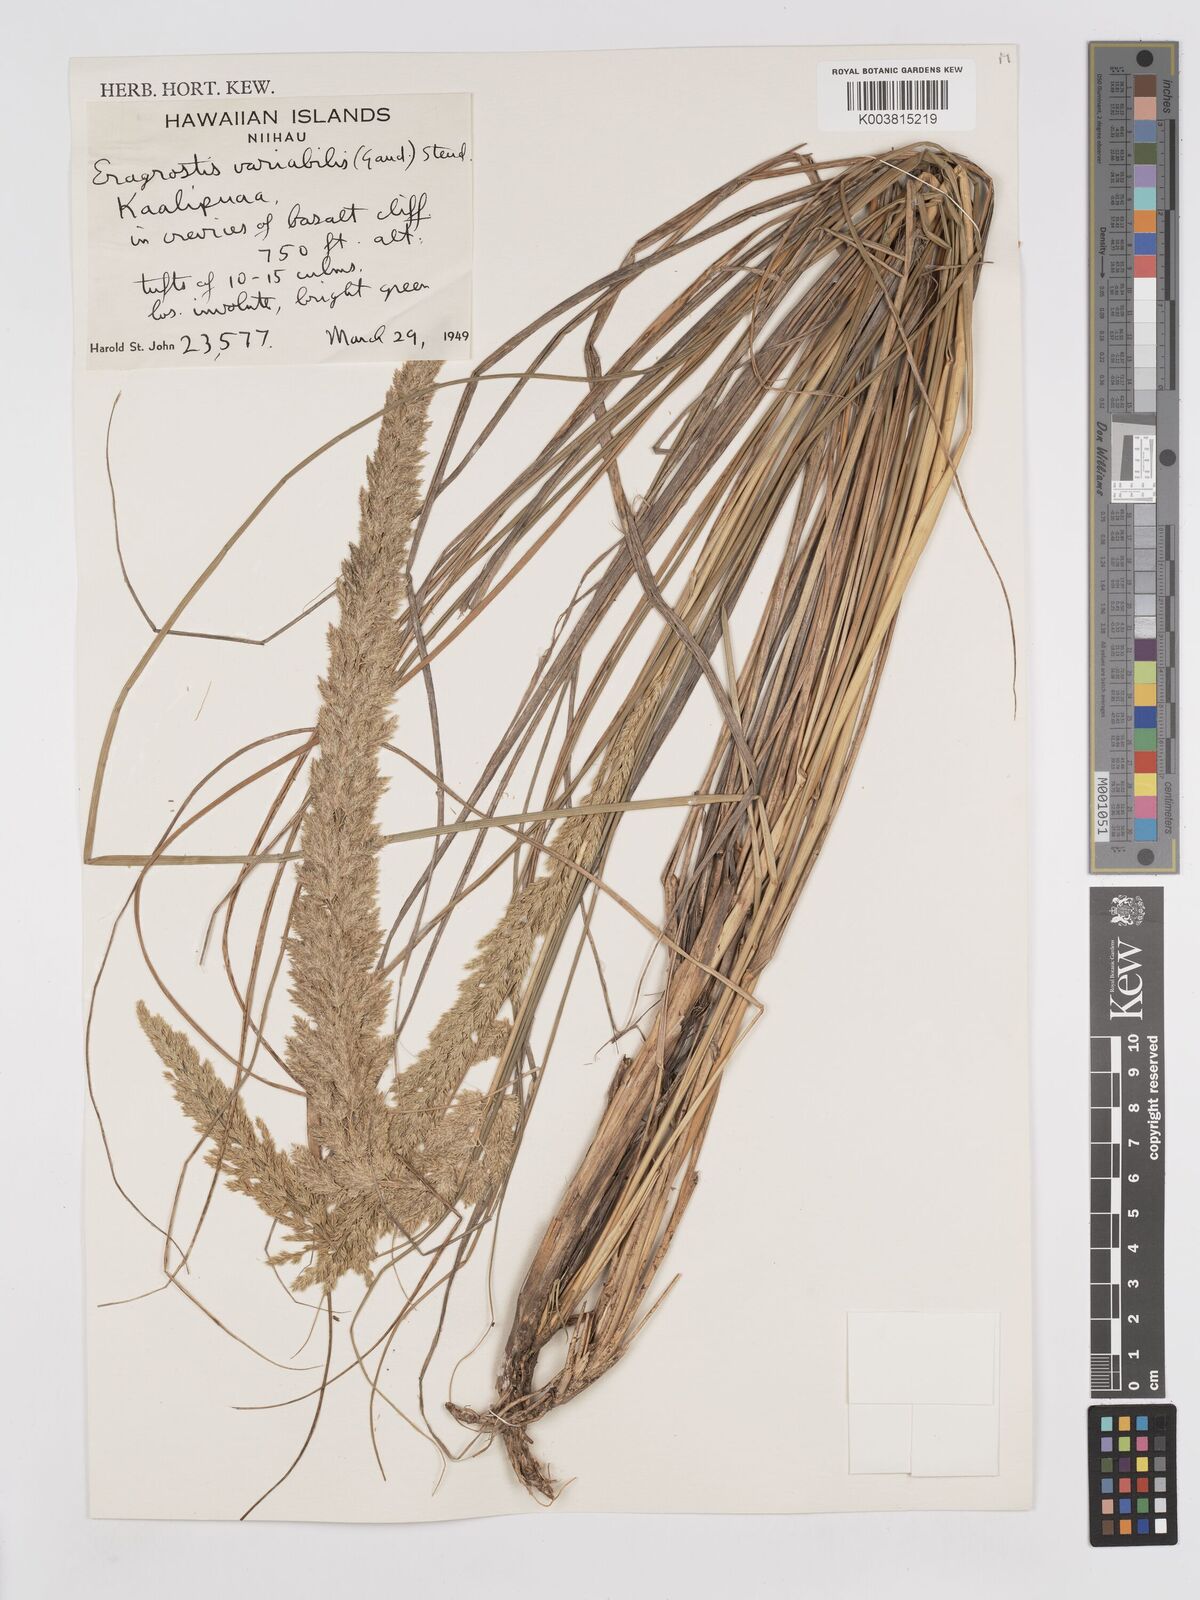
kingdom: Plantae
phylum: Tracheophyta
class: Liliopsida
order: Poales
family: Poaceae
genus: Eragrostis
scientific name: Eragrostis variabilis
